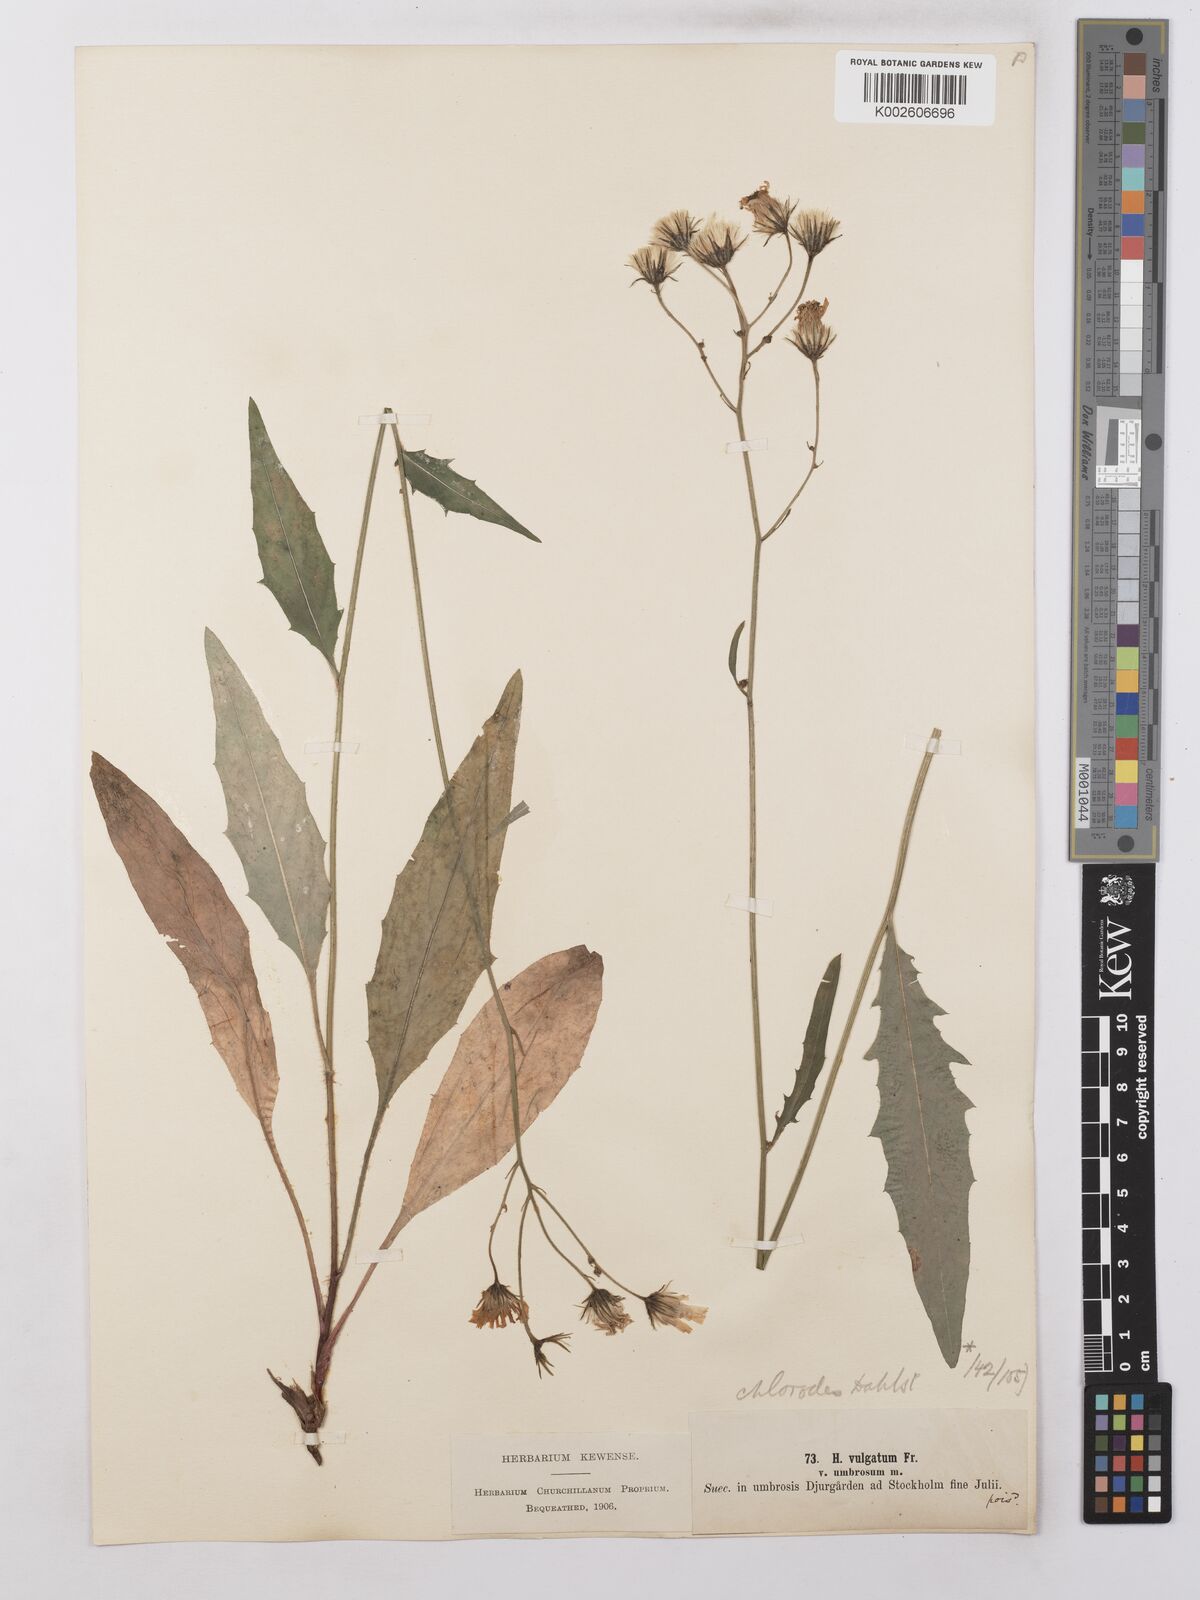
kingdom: Plantae
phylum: Tracheophyta
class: Magnoliopsida
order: Asterales
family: Asteraceae
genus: Hieracium
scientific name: Hieracium lachenalii
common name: Common hawkweed
